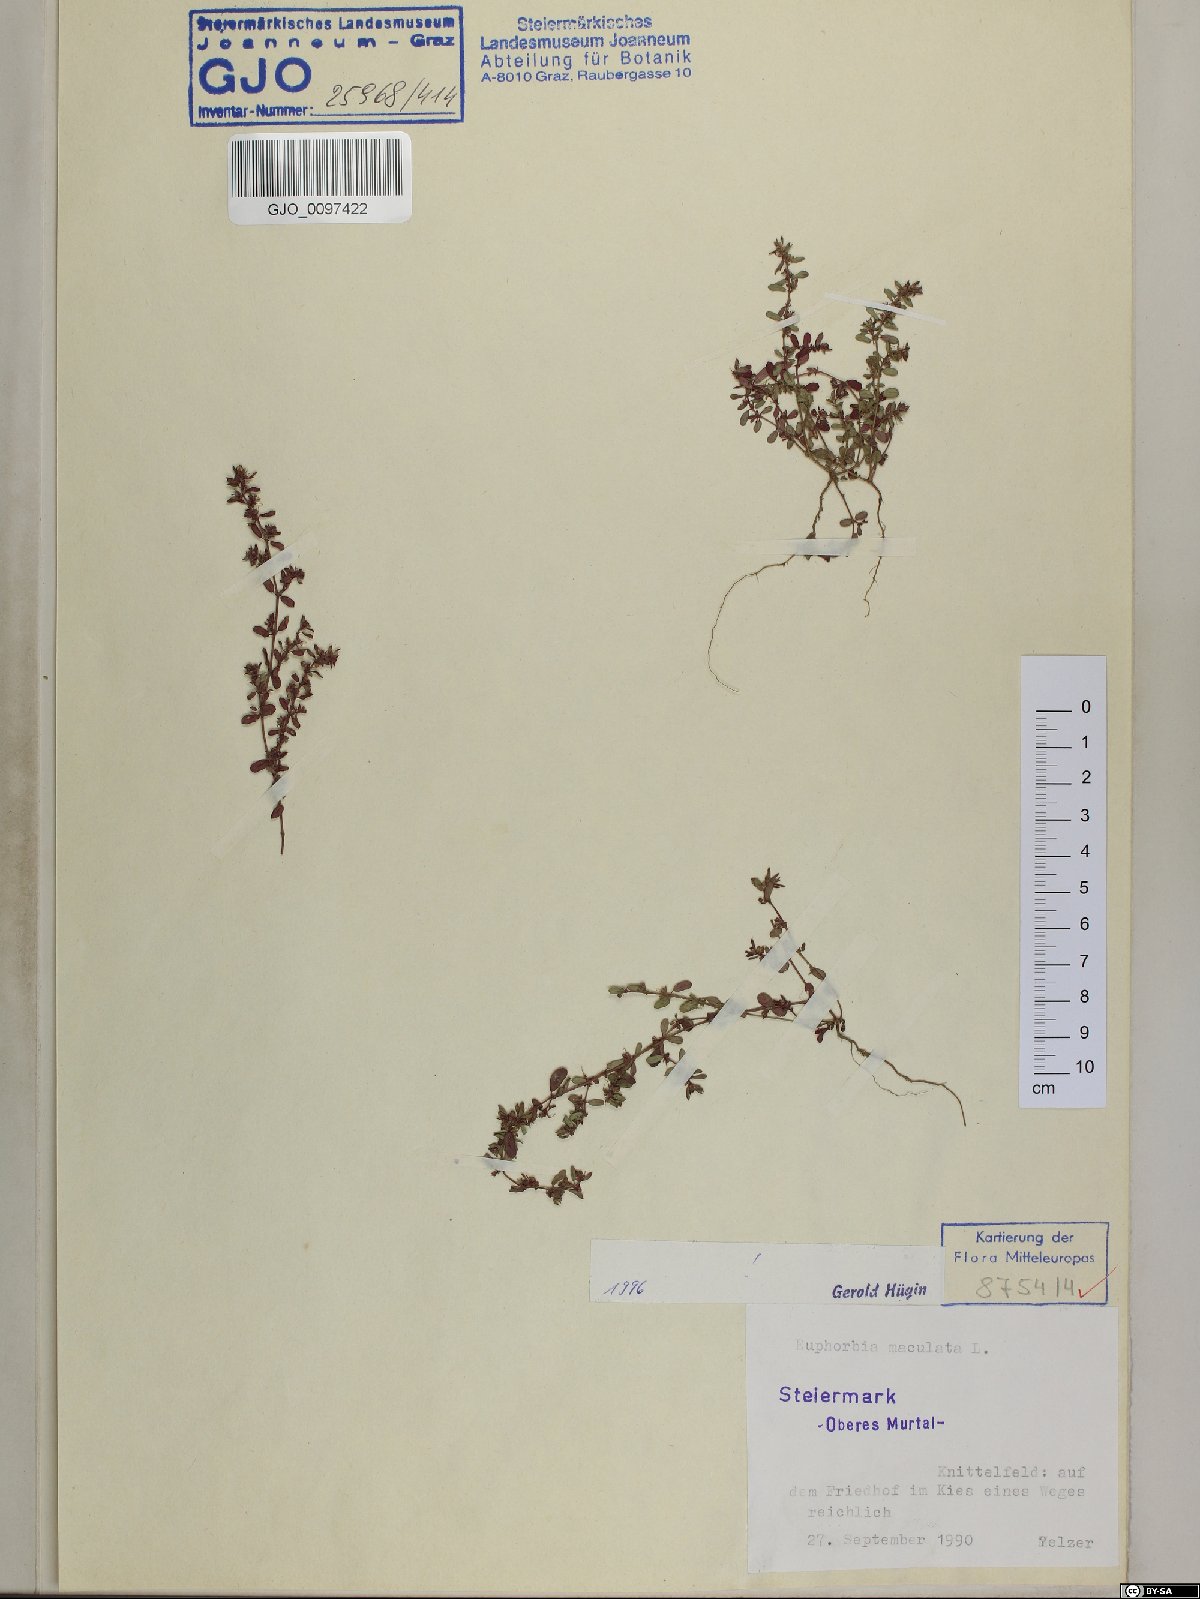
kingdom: Plantae
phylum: Tracheophyta
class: Magnoliopsida
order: Malpighiales
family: Euphorbiaceae
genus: Euphorbia
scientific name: Euphorbia maculata
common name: Spotted spurge
